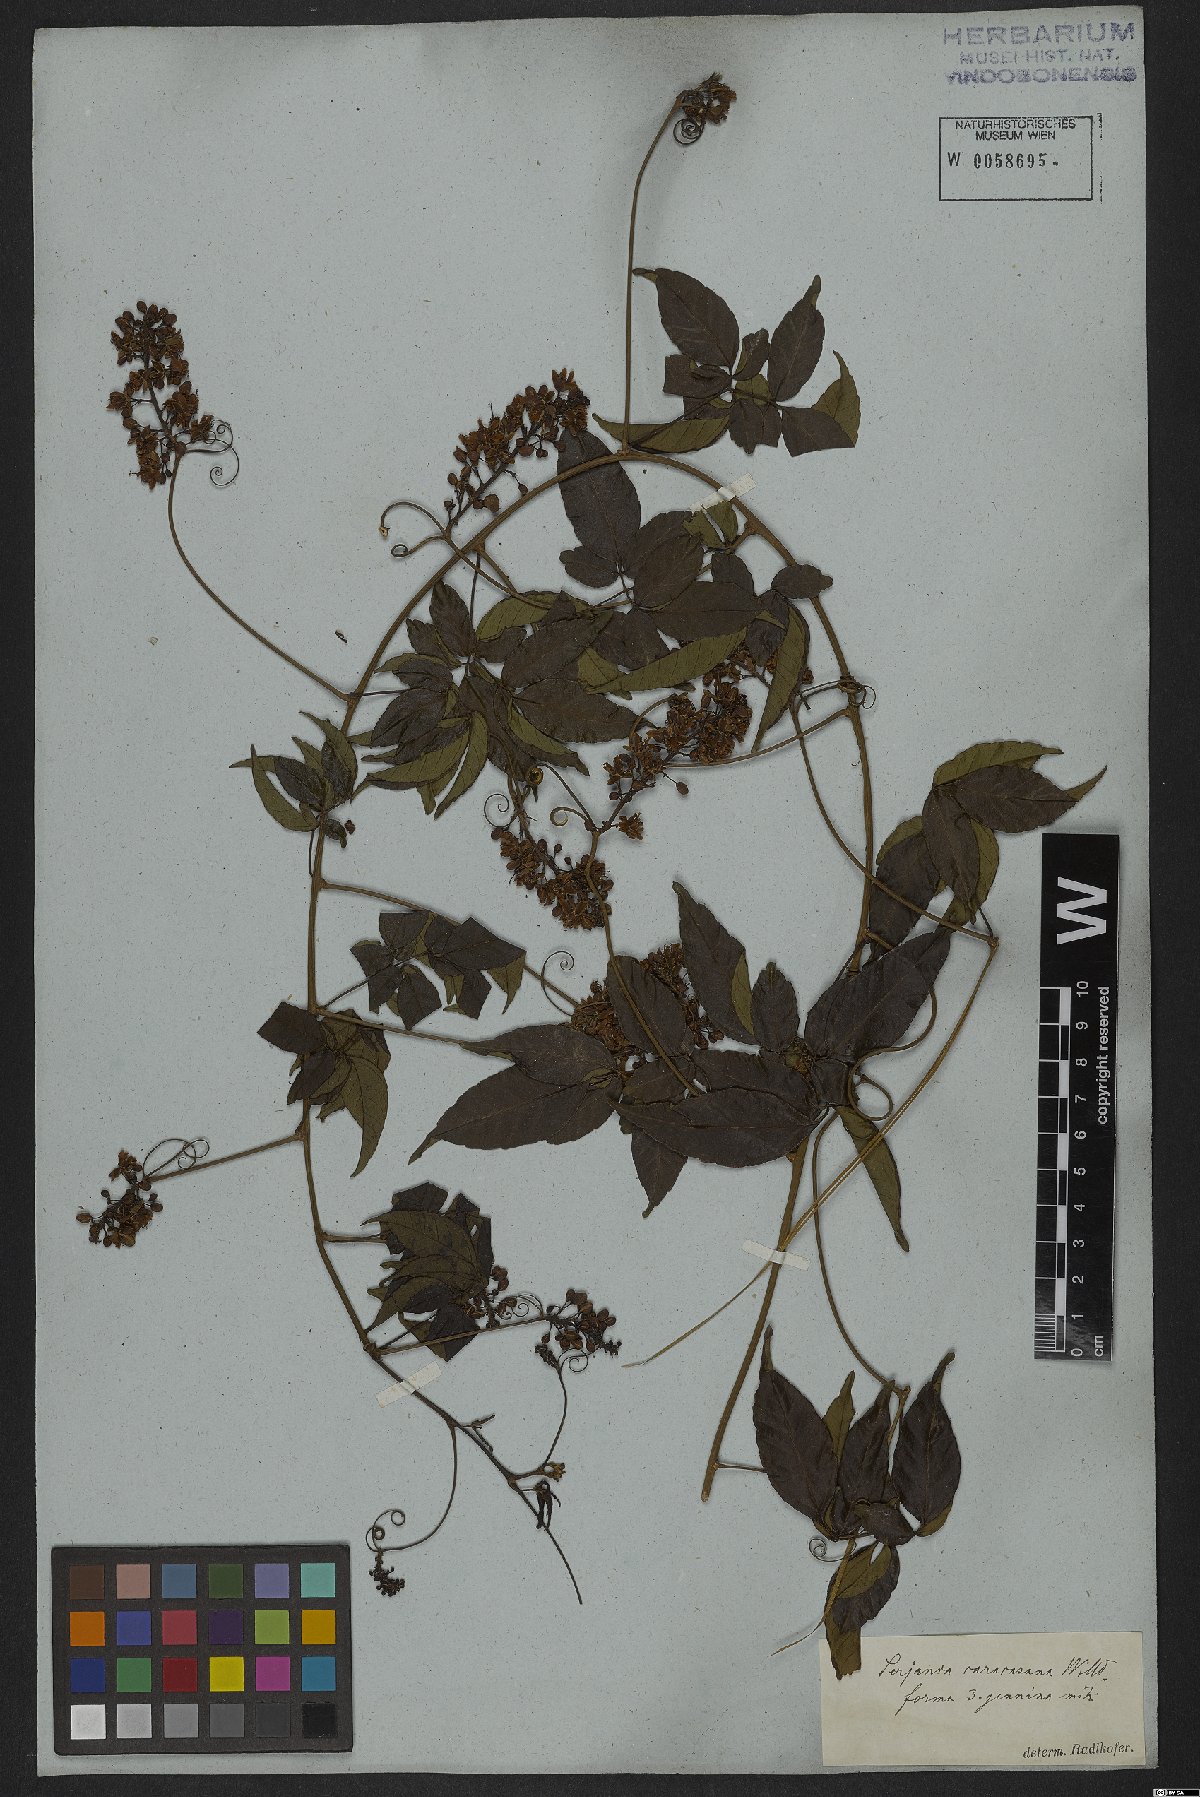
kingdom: Plantae
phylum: Tracheophyta
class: Magnoliopsida
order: Sapindales
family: Sapindaceae
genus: Serjania
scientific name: Serjania caracasana
